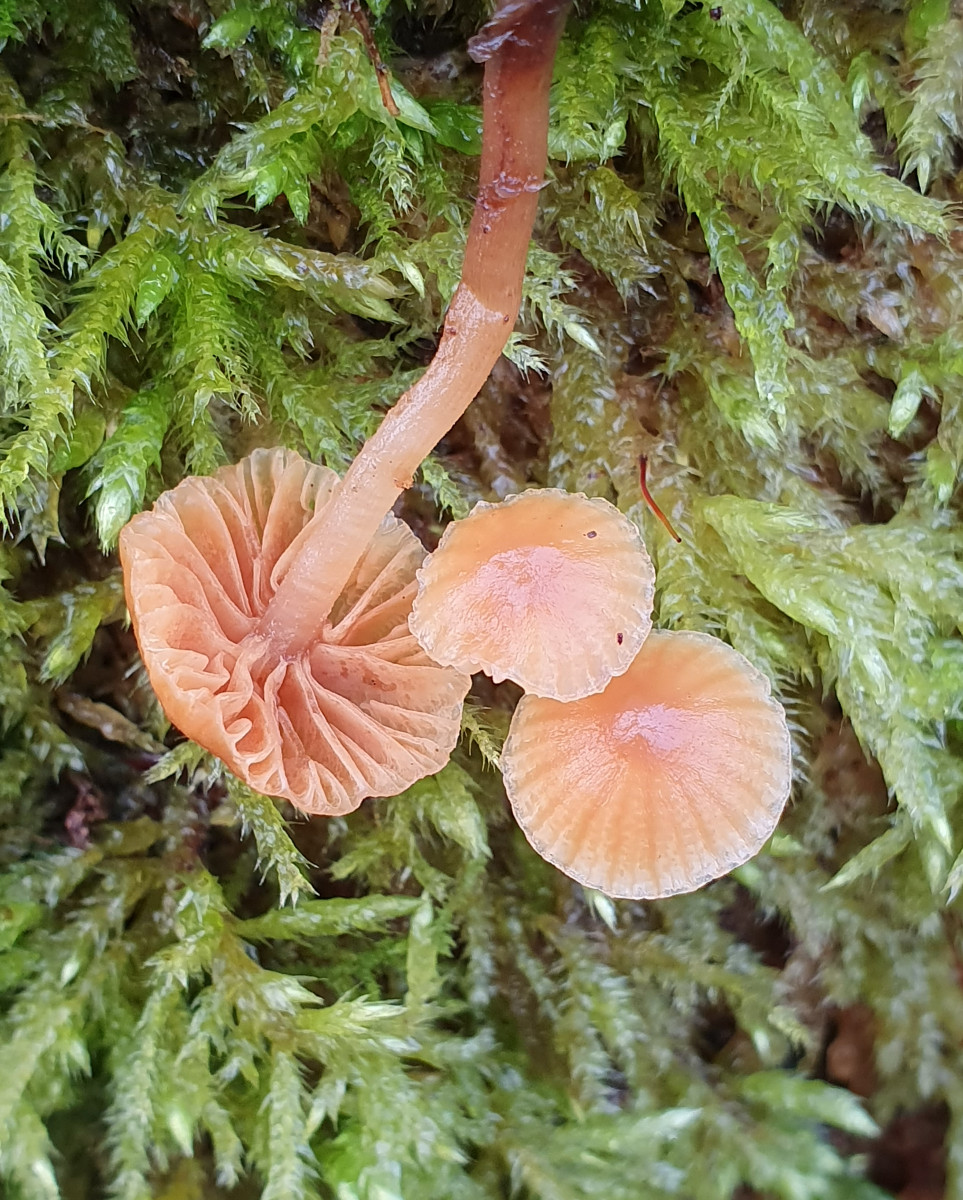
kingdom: Fungi
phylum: Basidiomycota
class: Agaricomycetes
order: Agaricales
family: Hymenogastraceae
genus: Galerina
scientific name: Galerina
